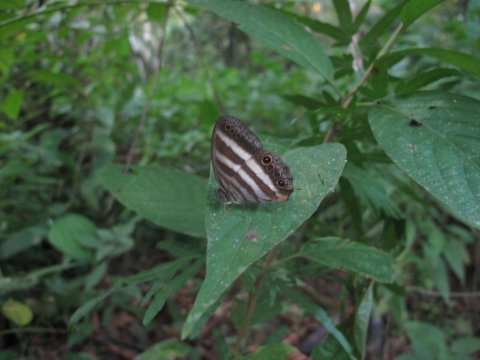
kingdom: Animalia
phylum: Arthropoda
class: Insecta
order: Lepidoptera
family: Nymphalidae
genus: Pareuptychia
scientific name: Pareuptychia hesione
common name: White Satyr
